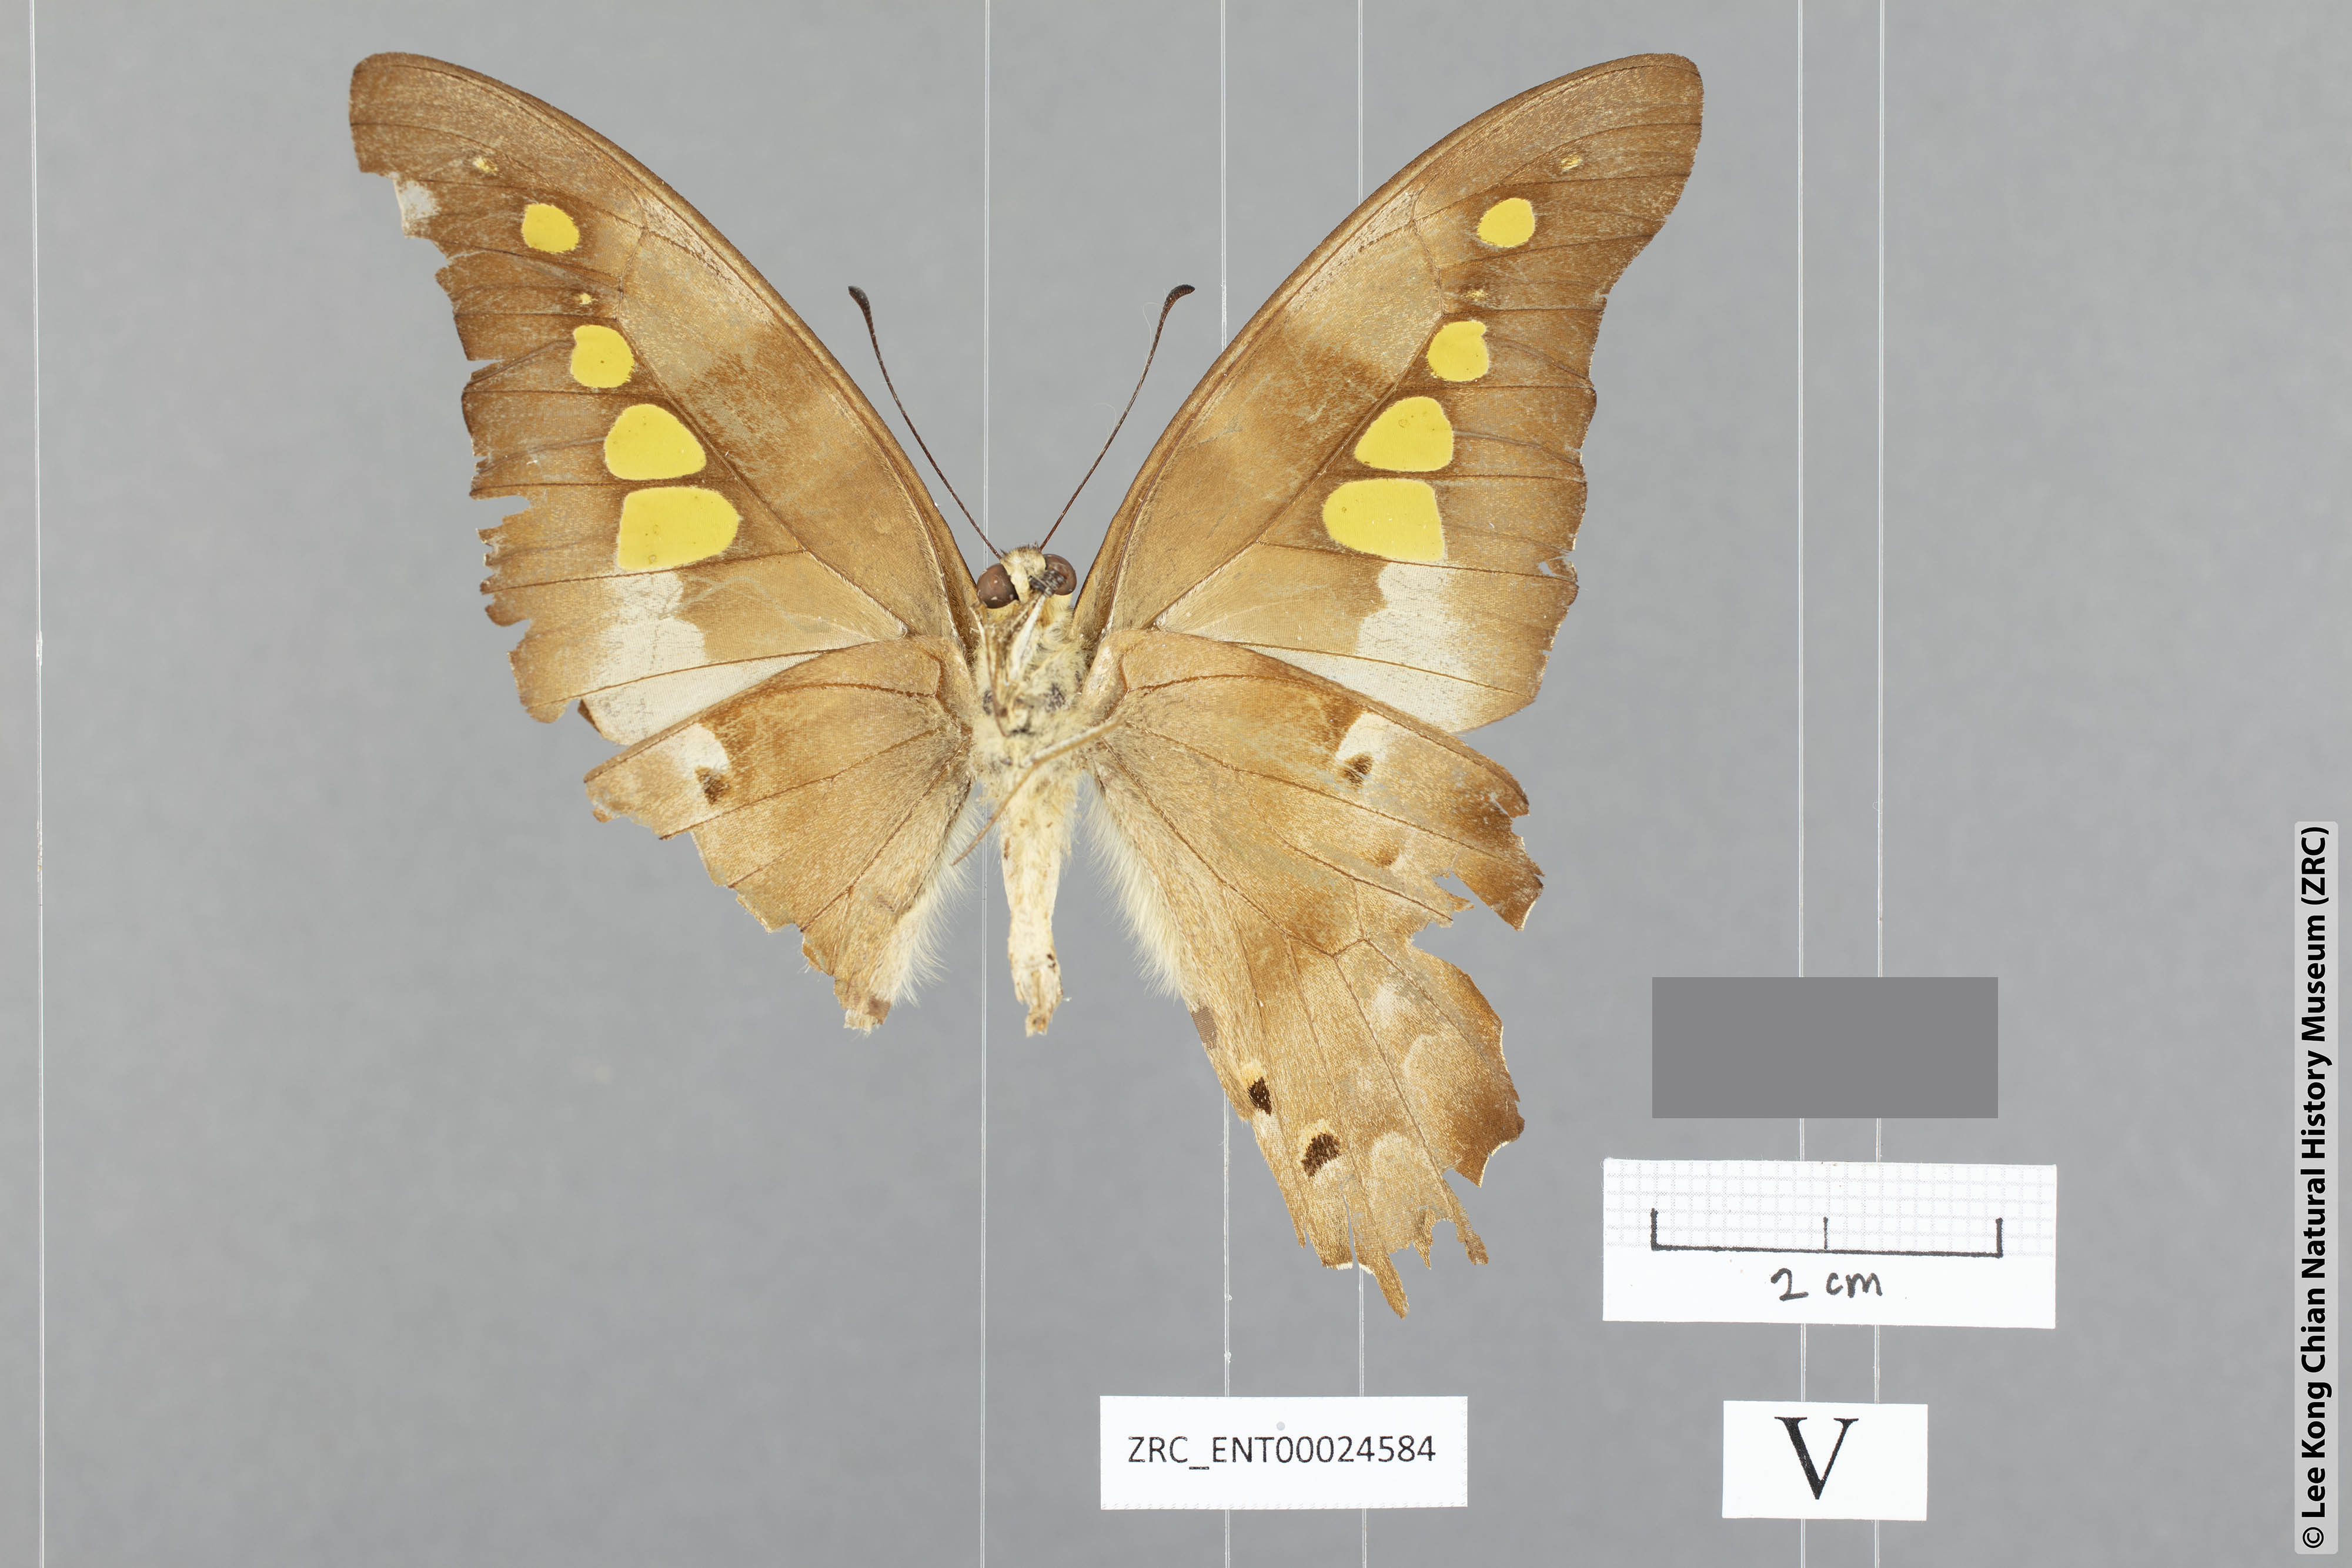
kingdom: Animalia
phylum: Arthropoda
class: Insecta
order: Lepidoptera
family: Papilionidae
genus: Graphium
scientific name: Graphium empedovana
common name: Malayan yellowbottle
